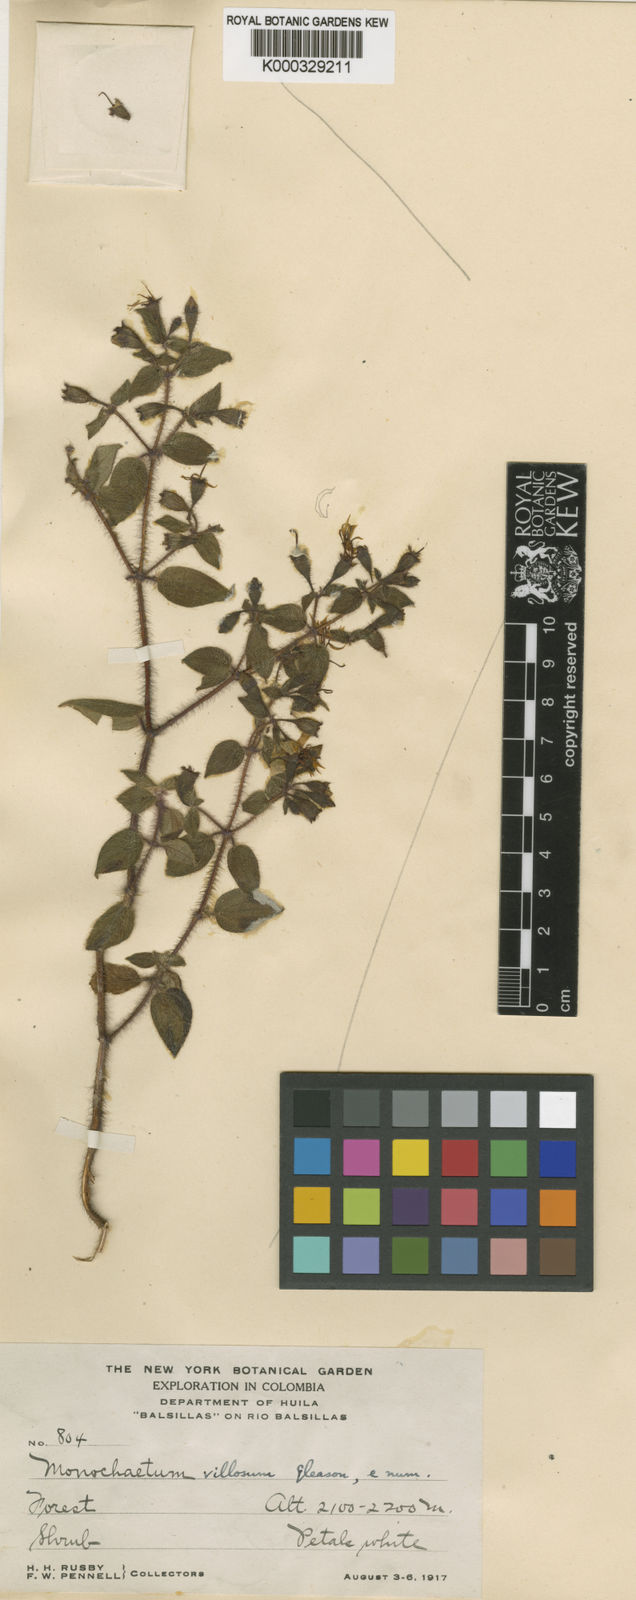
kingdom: Plantae
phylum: Tracheophyta
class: Magnoliopsida
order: Myrtales
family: Melastomataceae
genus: Monochaetum
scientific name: Monochaetum glanduliferum
